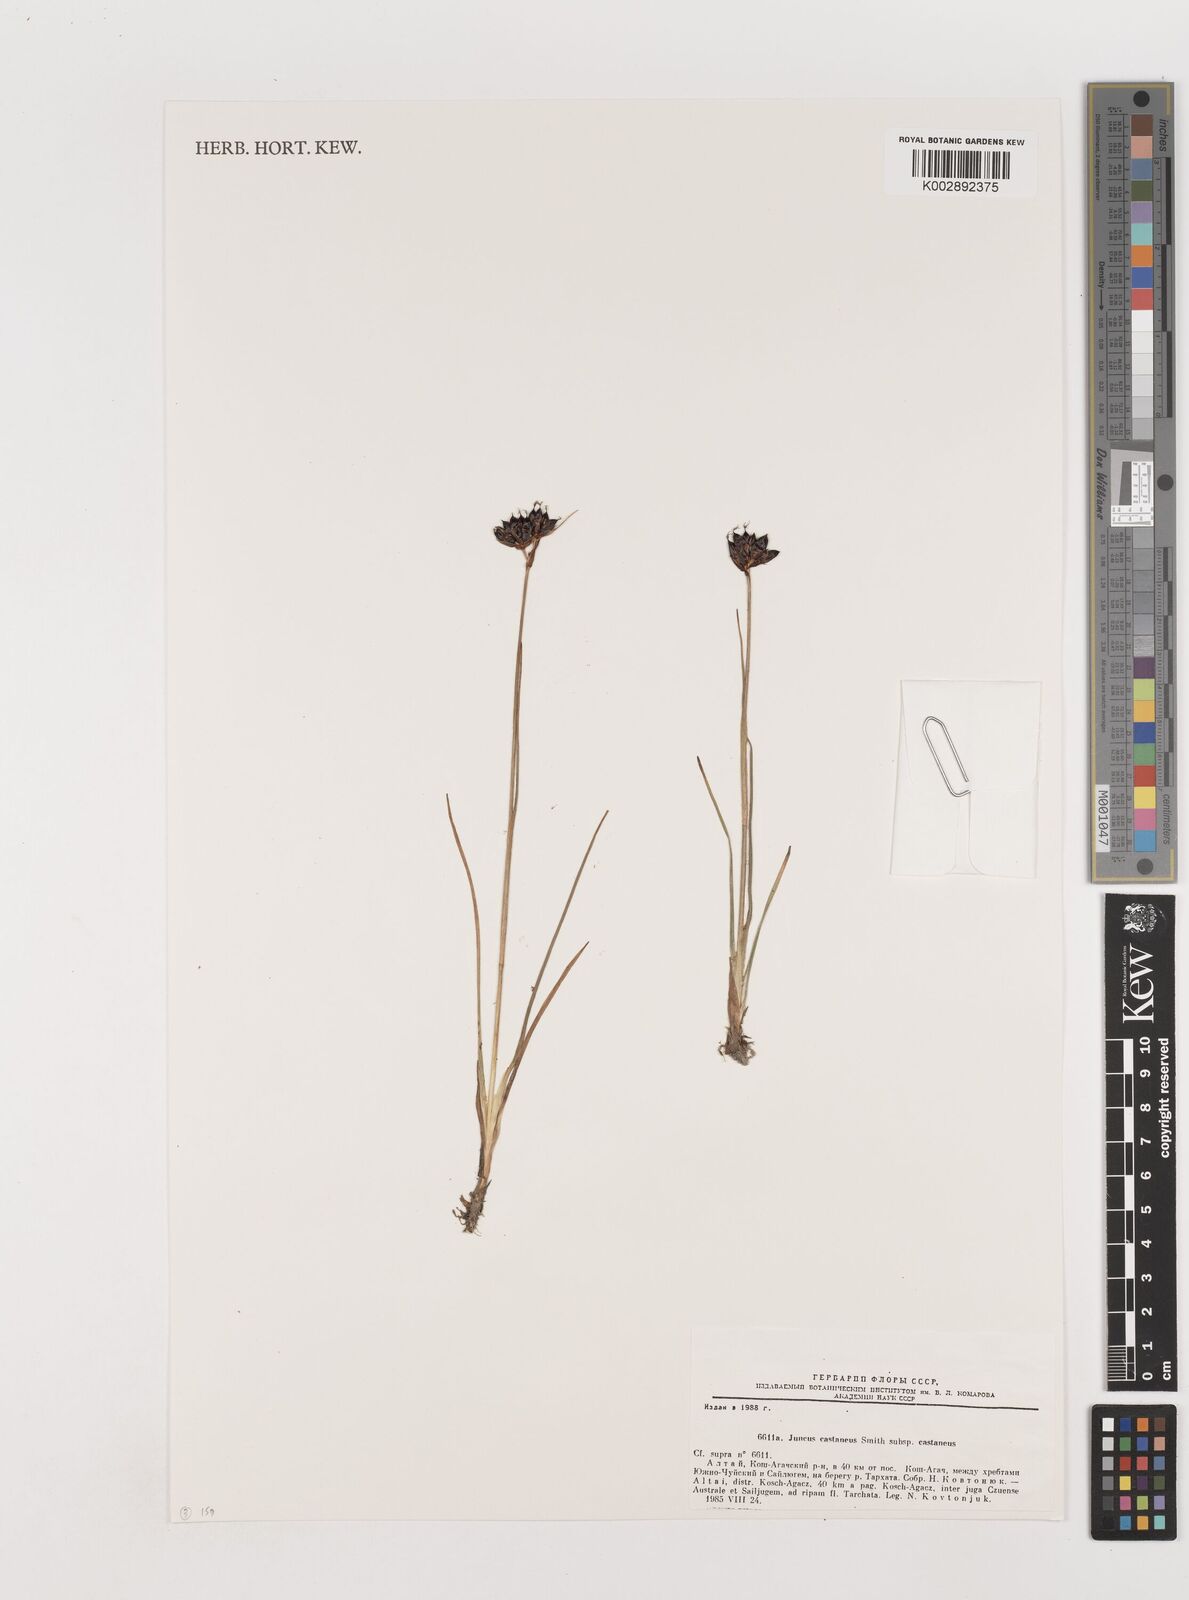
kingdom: Plantae
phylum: Tracheophyta
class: Liliopsida
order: Poales
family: Juncaceae
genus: Juncus
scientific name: Juncus castaneus
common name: Chestnut rush
